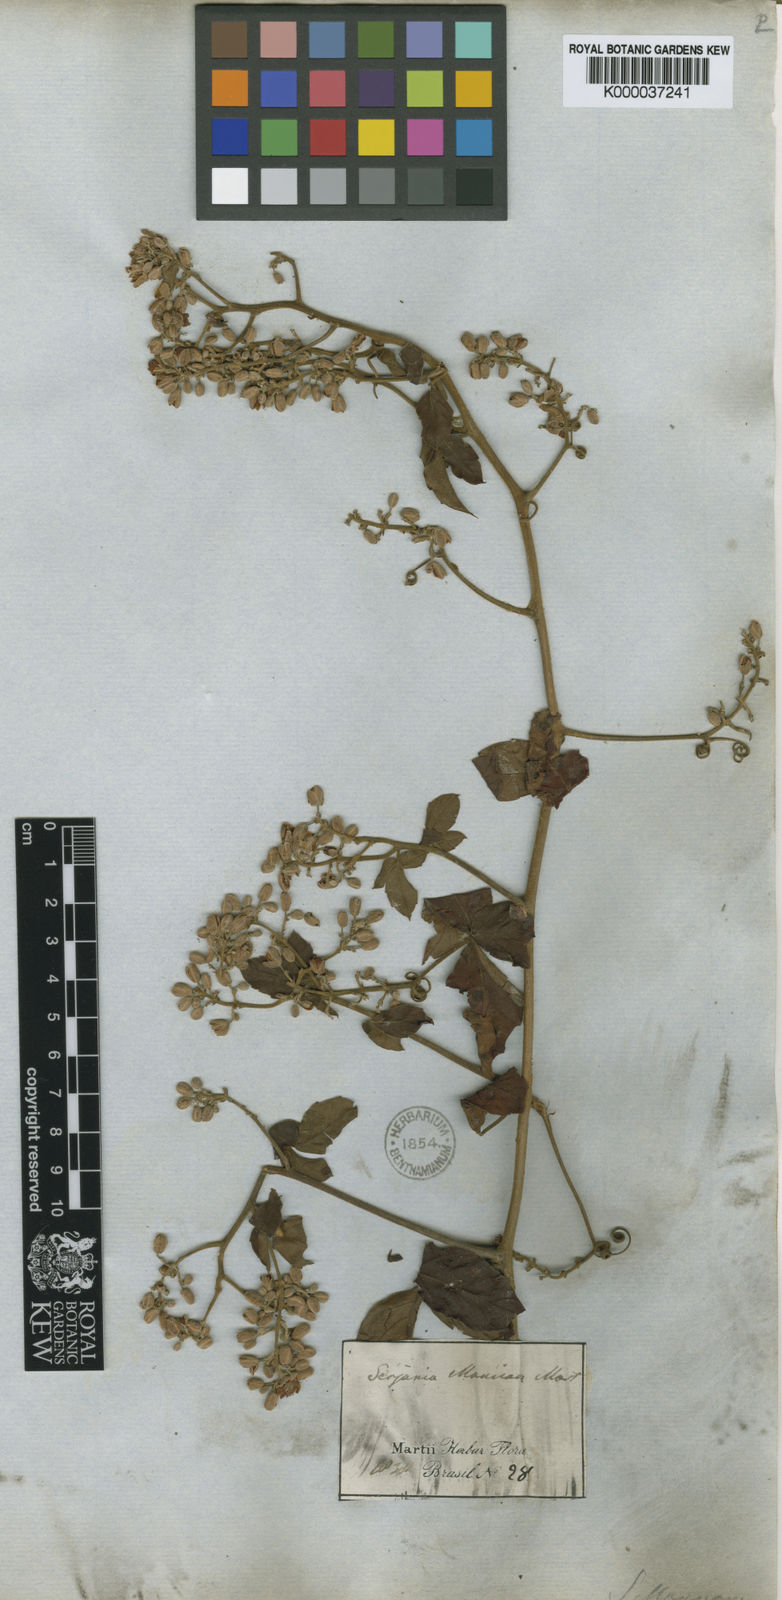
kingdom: Plantae
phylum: Tracheophyta
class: Magnoliopsida
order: Sapindales
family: Sapindaceae
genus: Serjania
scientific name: Serjania mansiana
